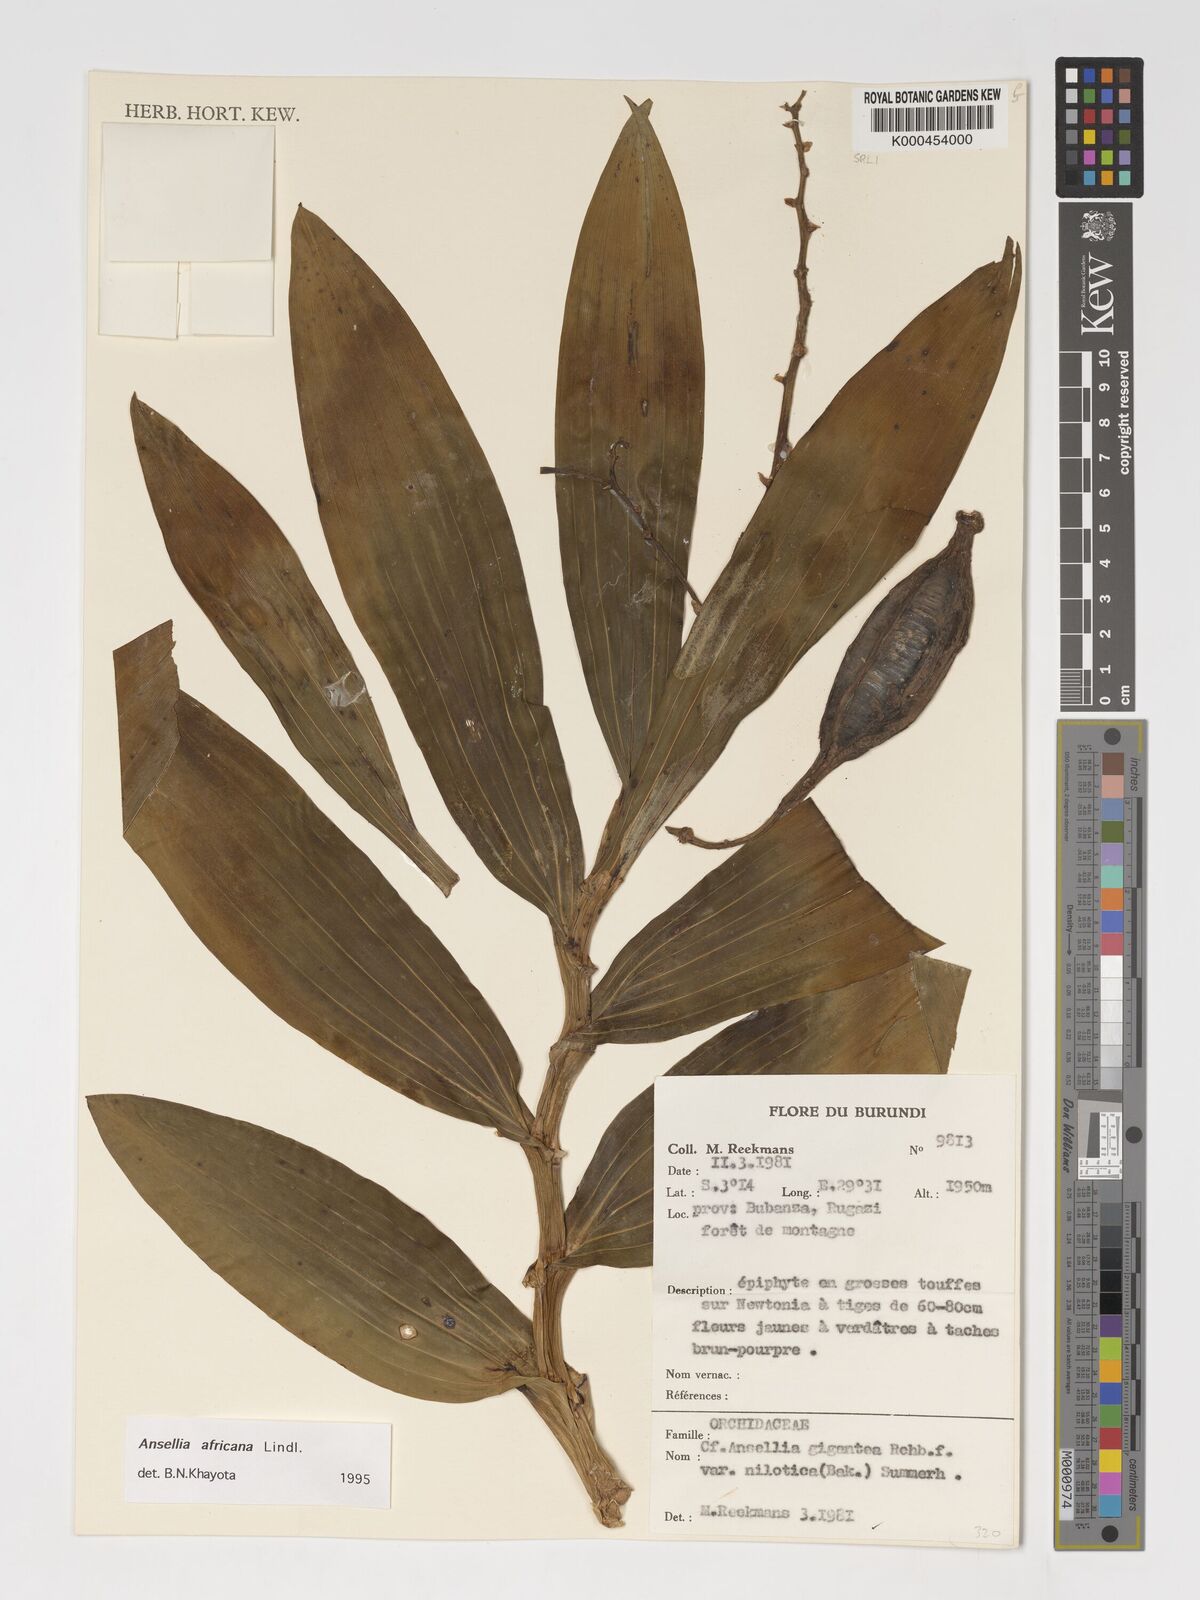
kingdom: Plantae
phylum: Tracheophyta
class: Liliopsida
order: Asparagales
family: Orchidaceae
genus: Ansellia
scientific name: Ansellia africana
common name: African ansellia
